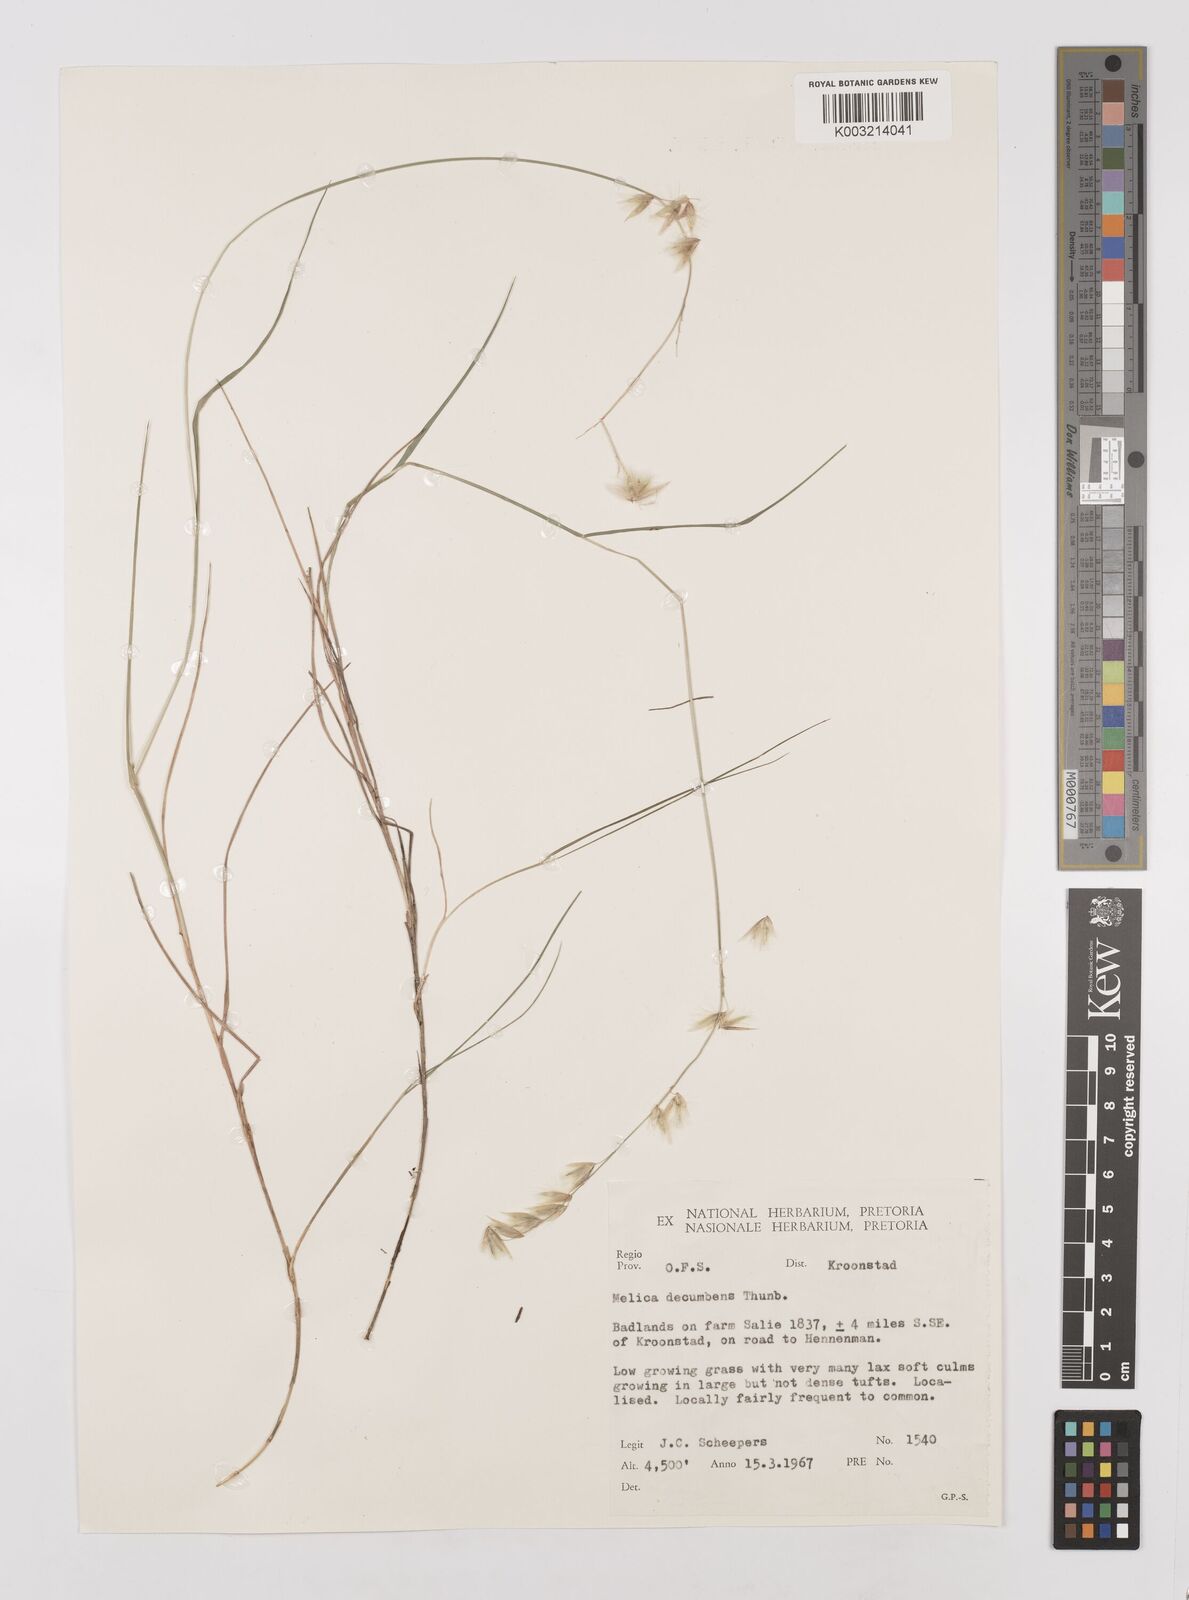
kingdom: Plantae
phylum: Tracheophyta
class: Liliopsida
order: Poales
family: Poaceae
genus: Melica
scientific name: Melica dendroides
